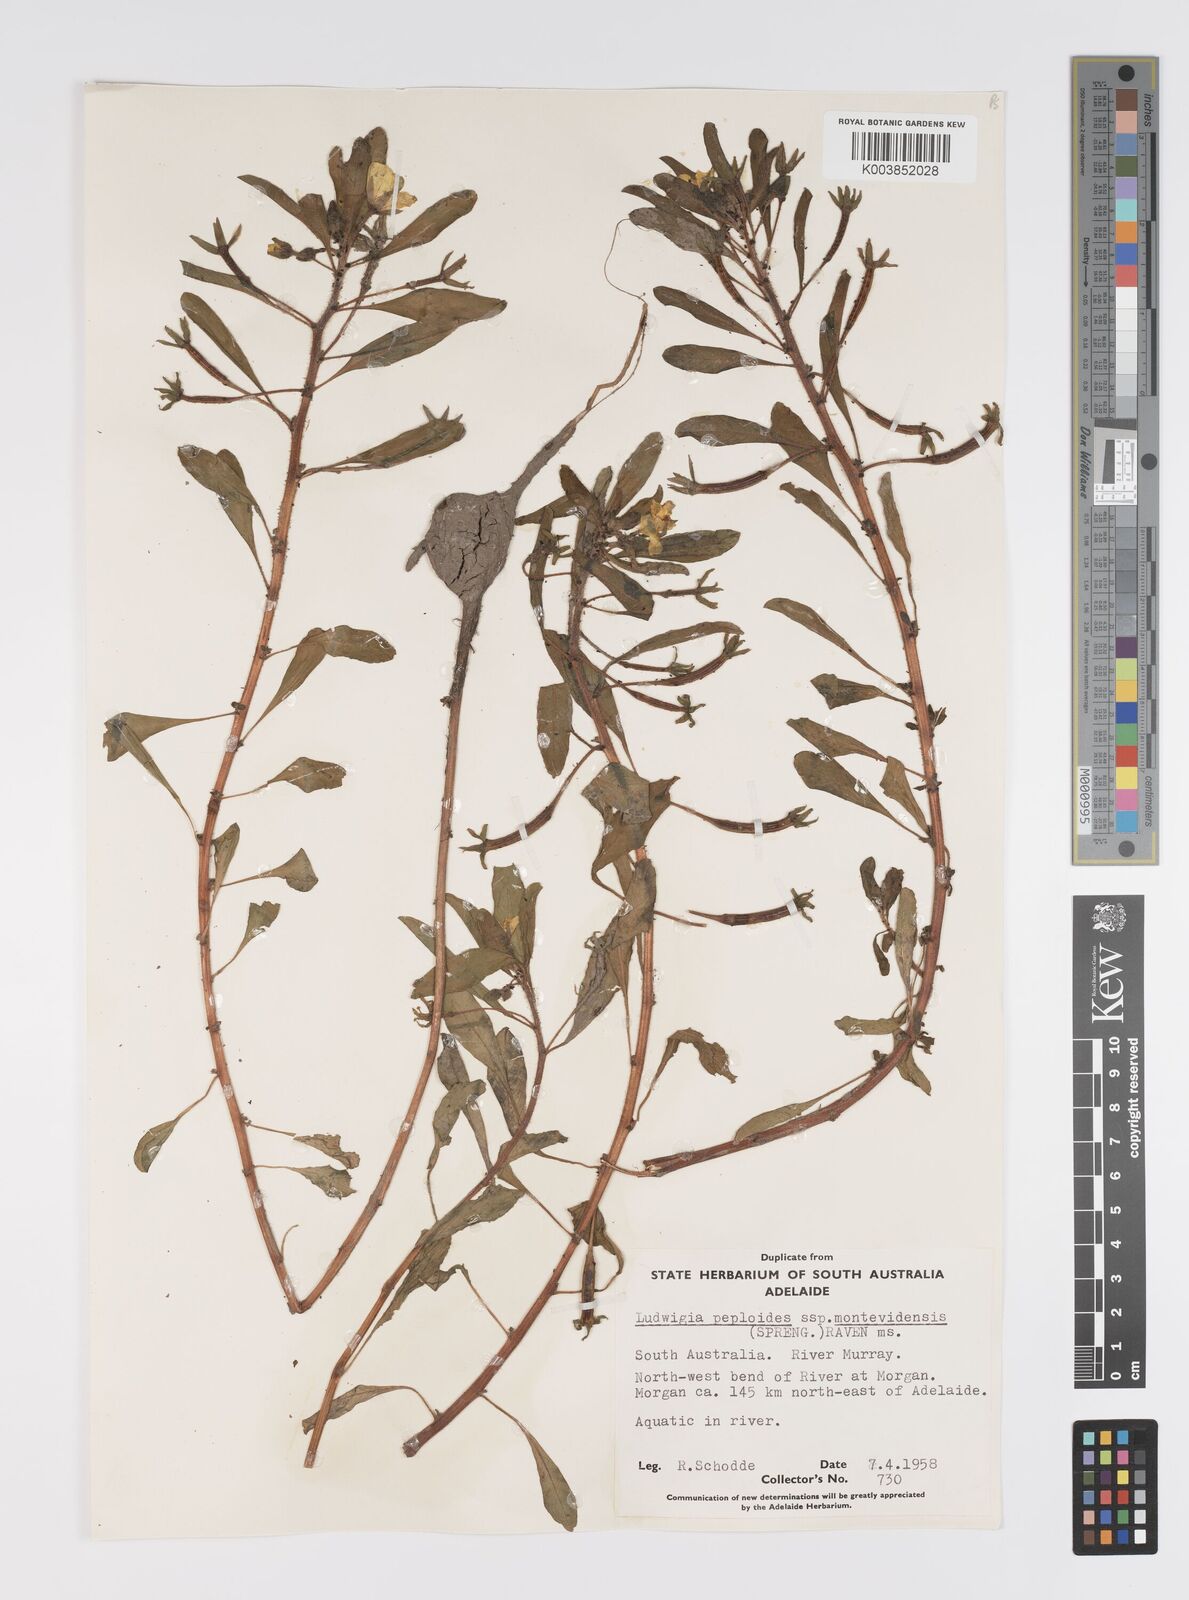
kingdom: Plantae
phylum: Tracheophyta
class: Magnoliopsida
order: Myrtales
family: Onagraceae
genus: Ludwigia
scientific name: Ludwigia peploides
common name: Floating primrose-willow
